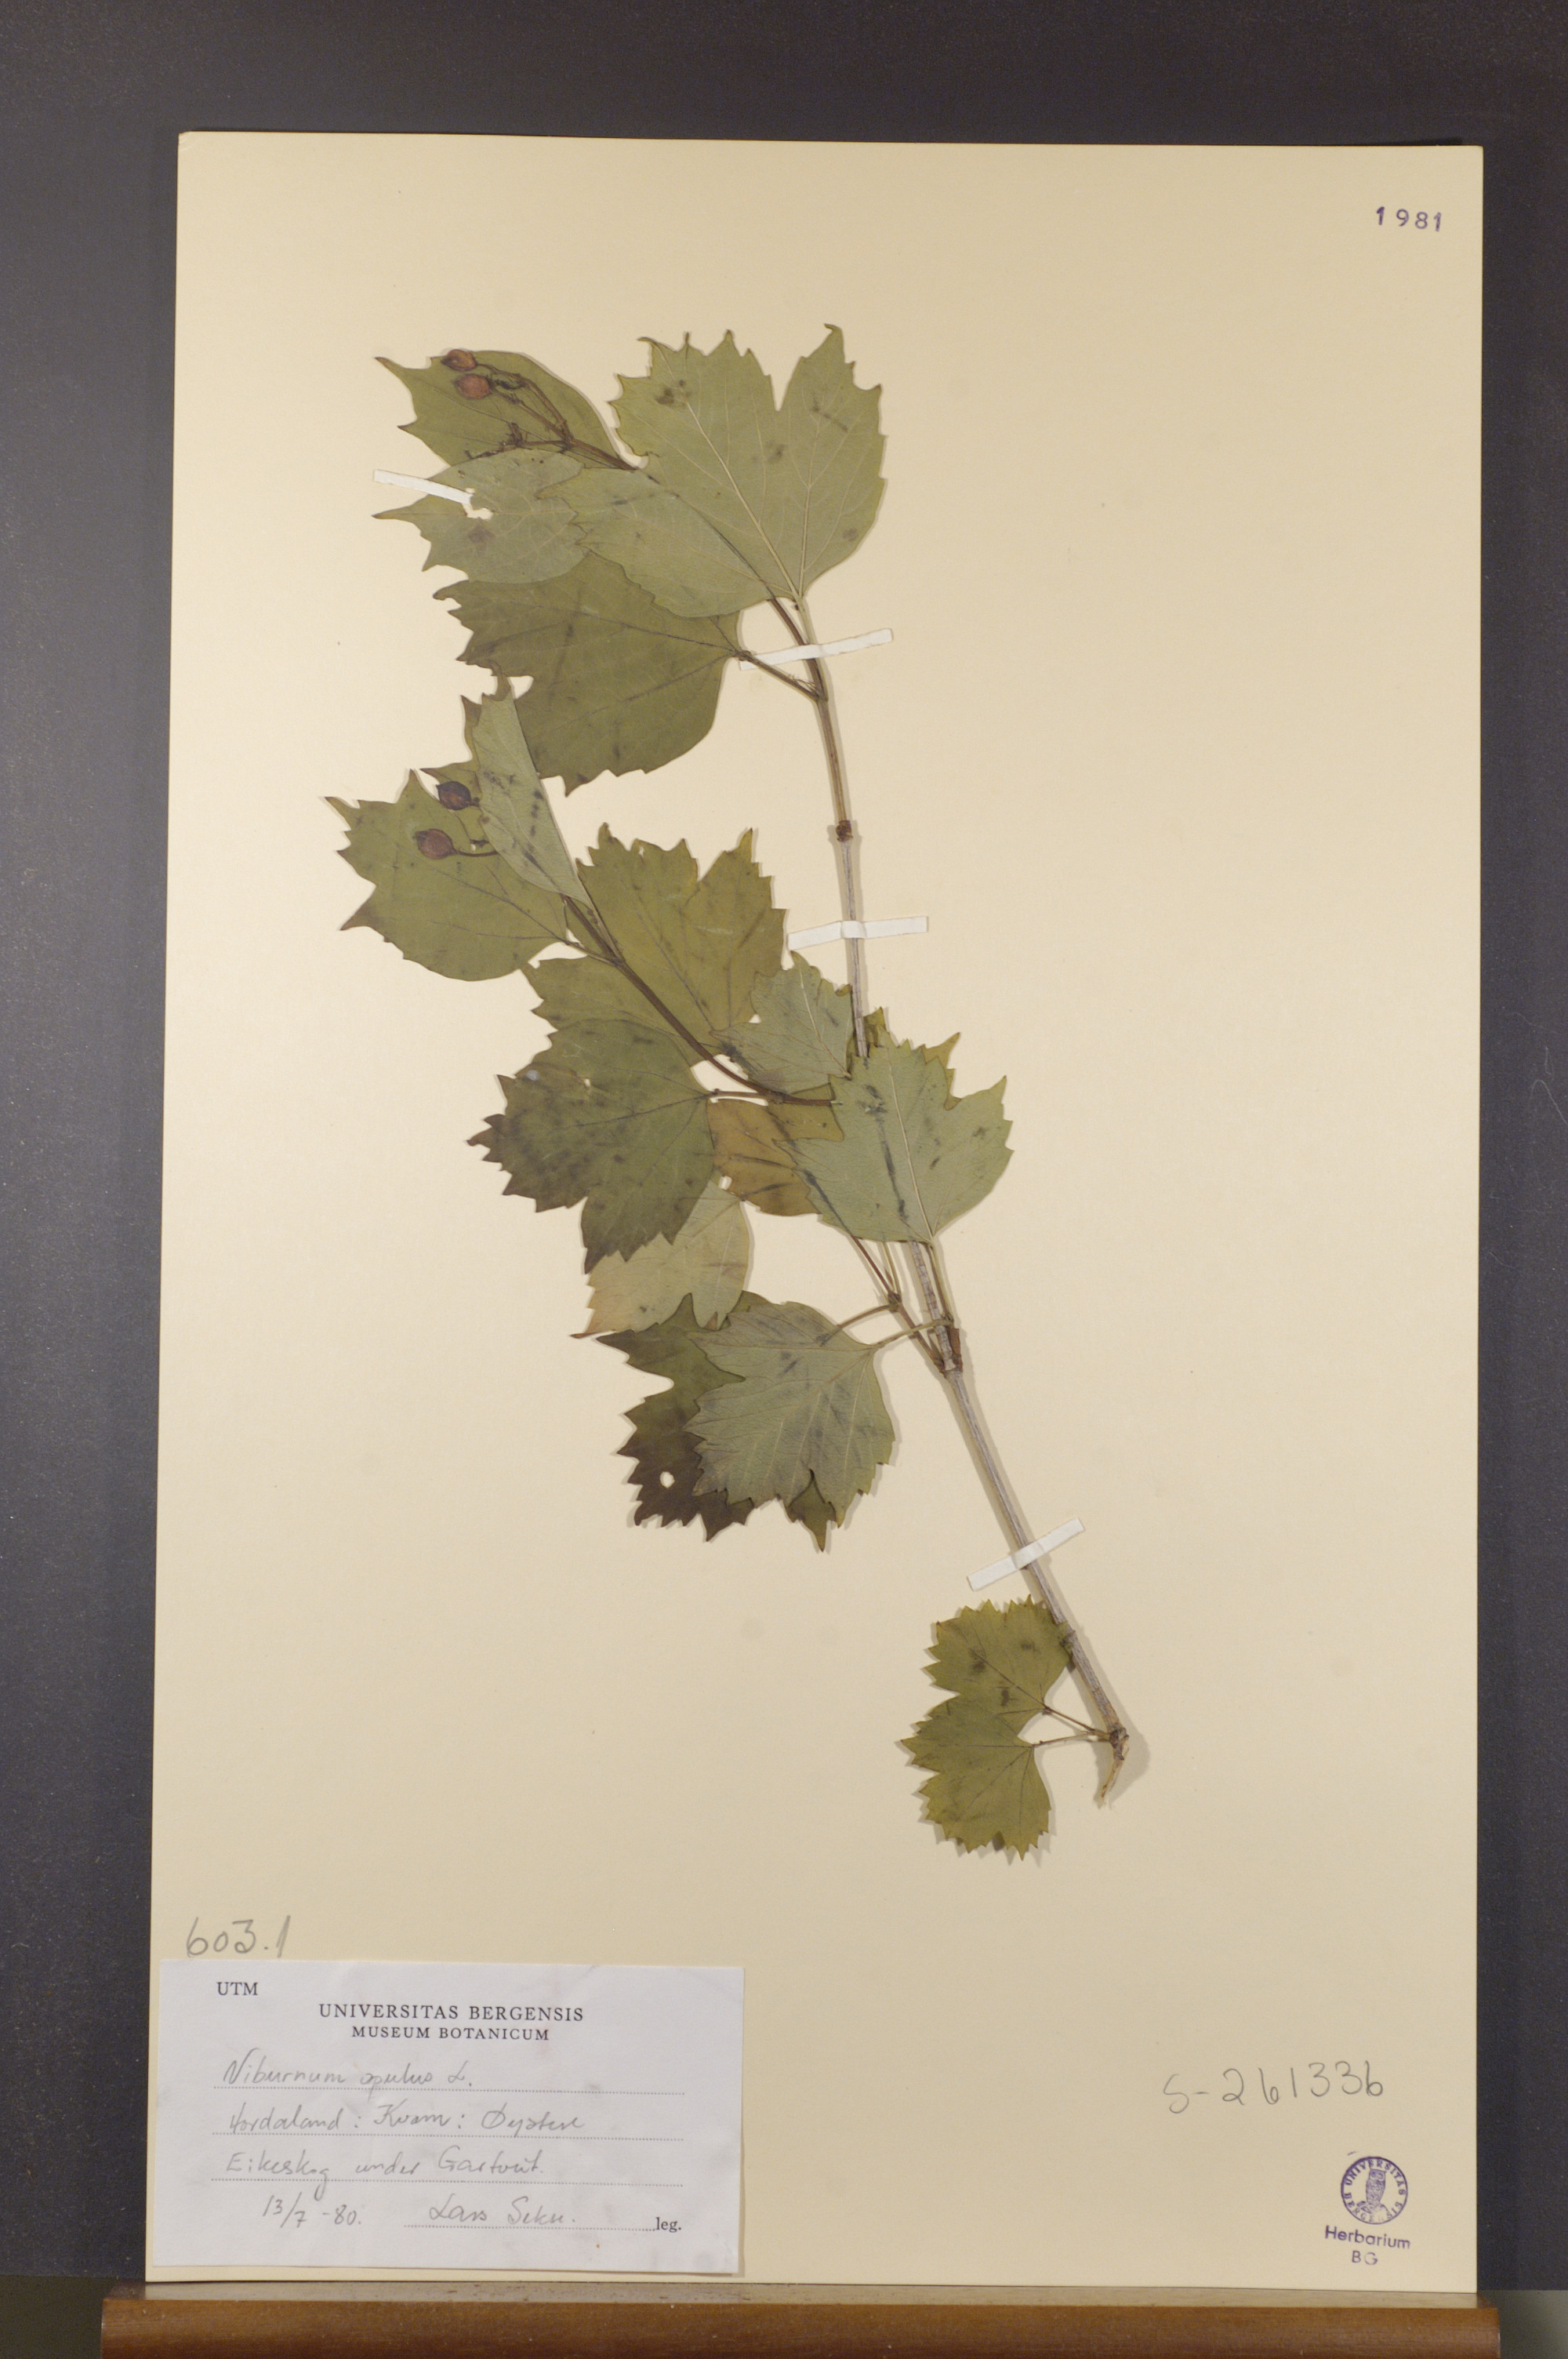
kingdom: Plantae
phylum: Tracheophyta
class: Magnoliopsida
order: Dipsacales
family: Viburnaceae
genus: Viburnum
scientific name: Viburnum opulus
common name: Guelder-rose
